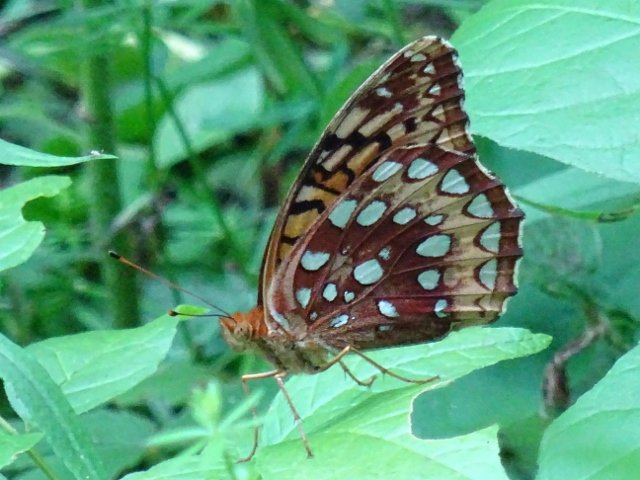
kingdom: Animalia
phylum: Arthropoda
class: Insecta
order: Lepidoptera
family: Nymphalidae
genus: Speyeria
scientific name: Speyeria cybele
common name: Great Spangled Fritillary
